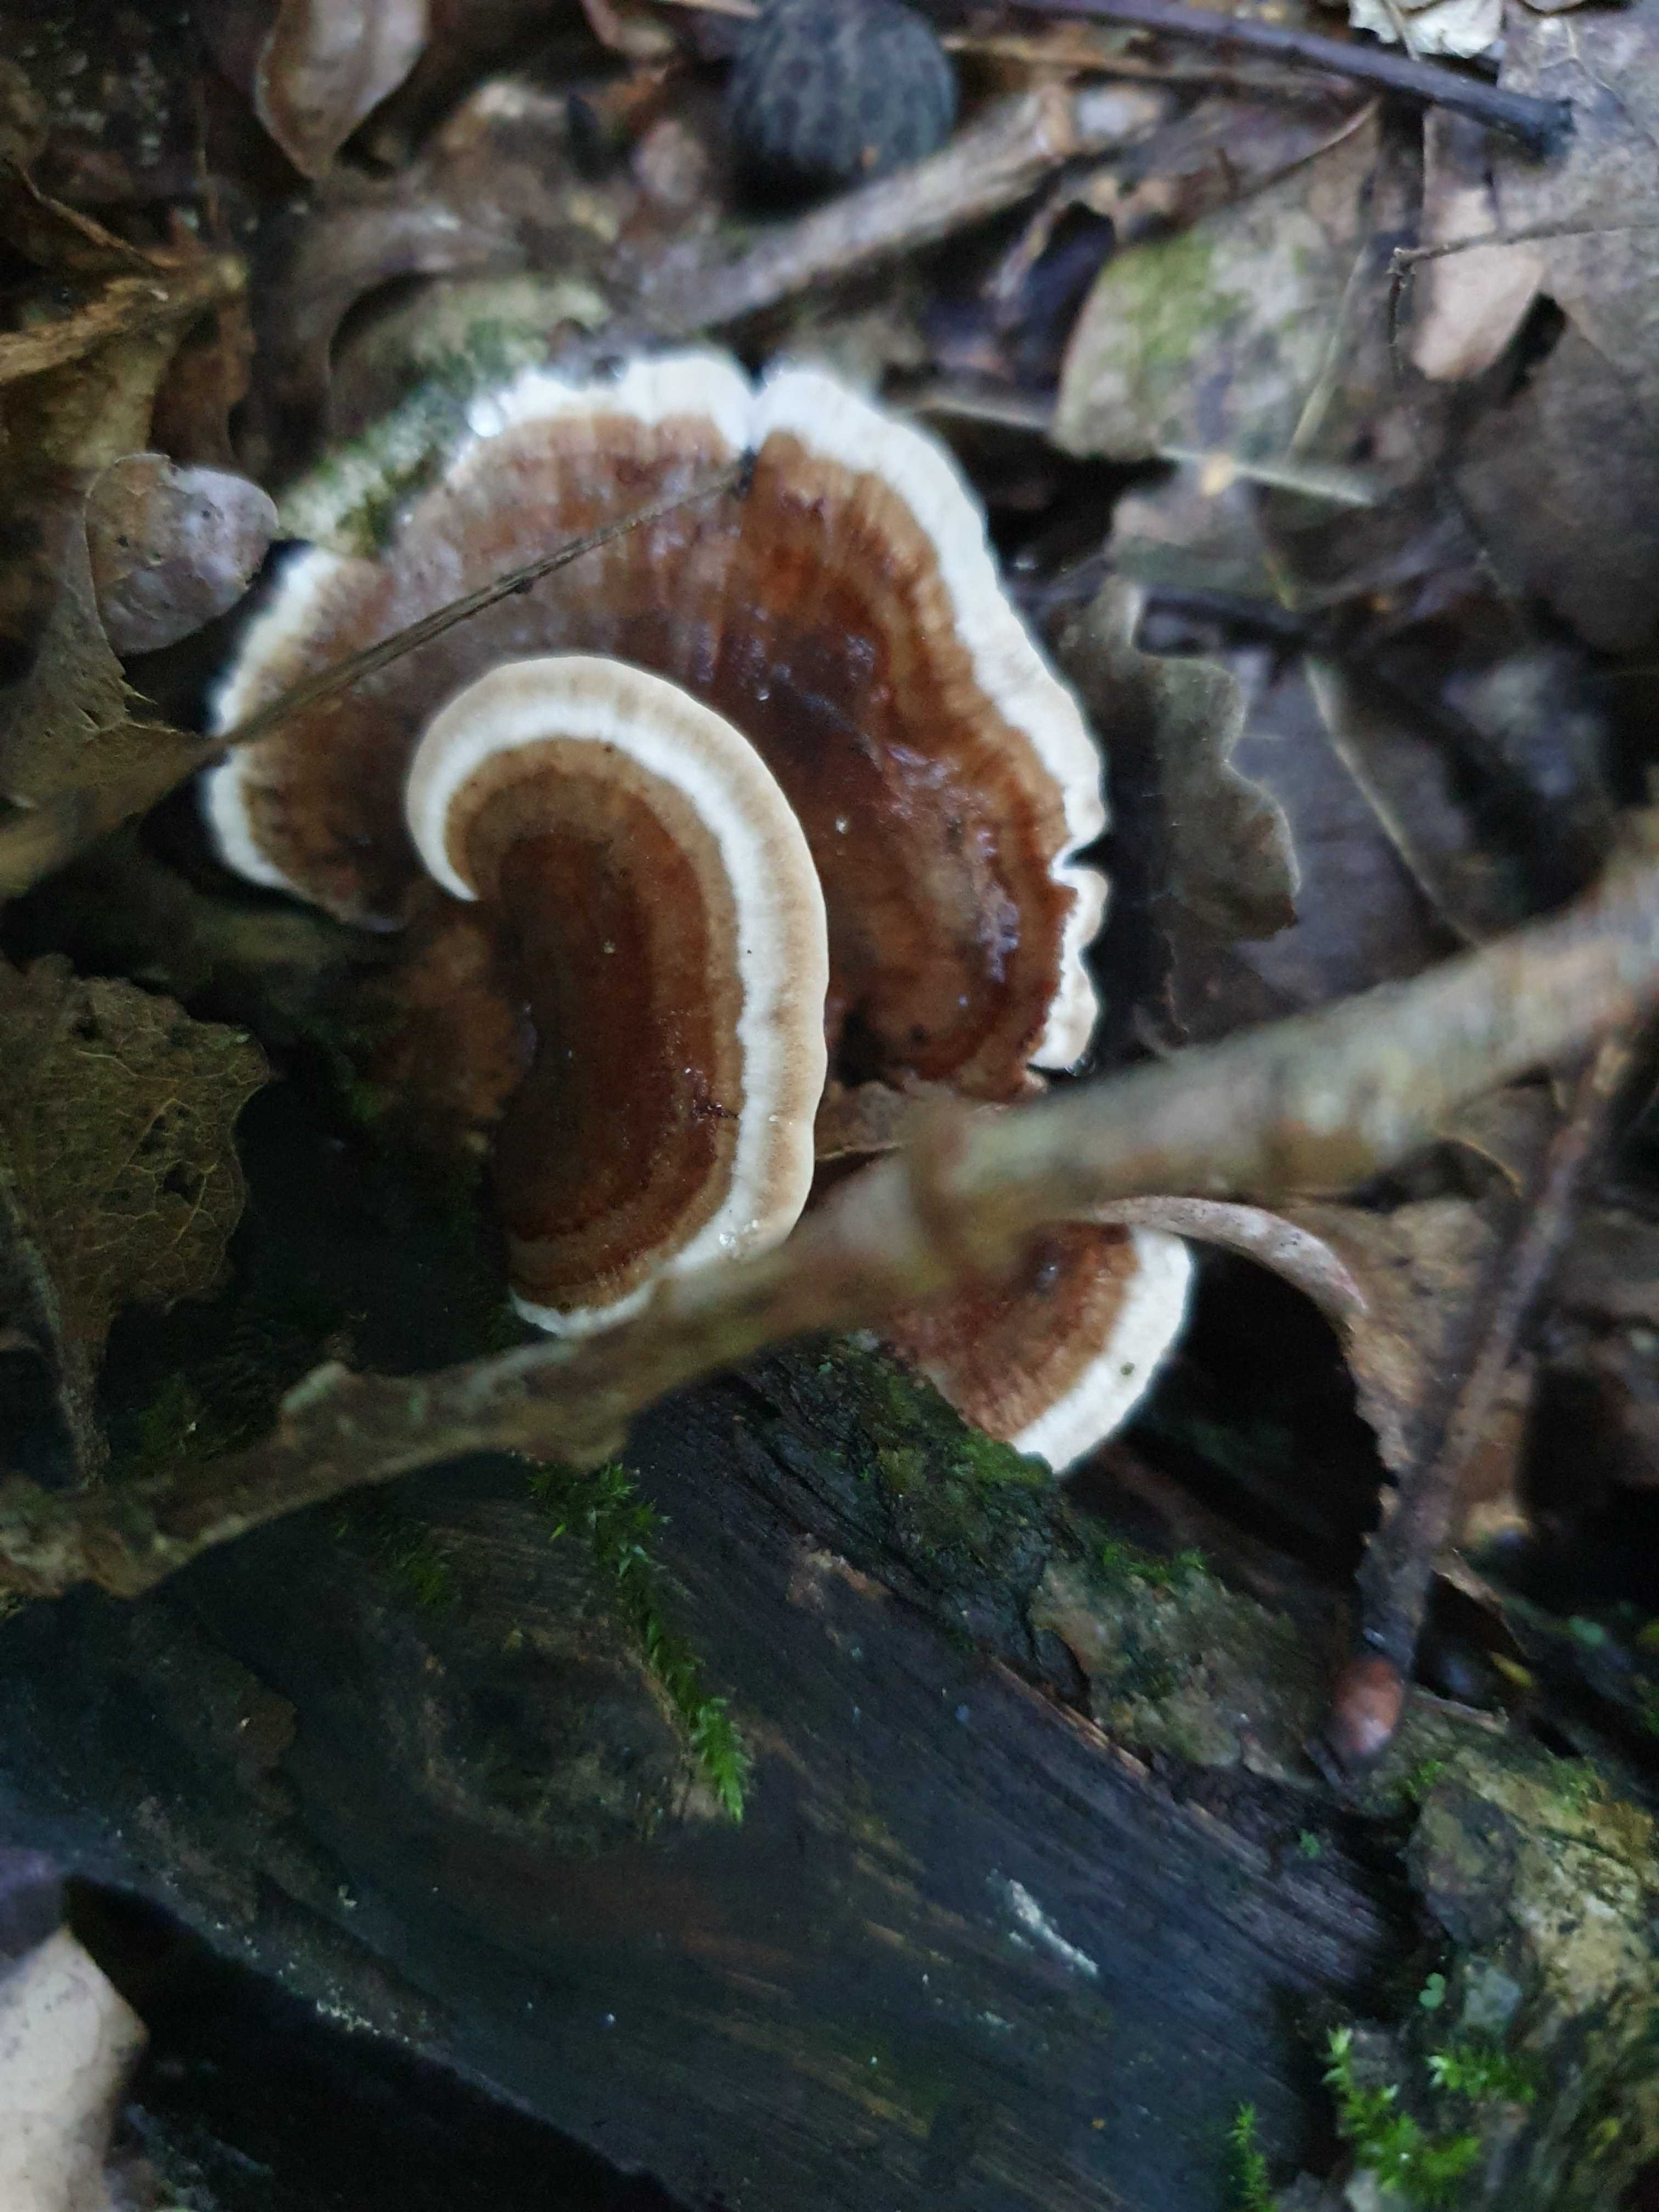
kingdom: Fungi
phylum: Basidiomycota
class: Agaricomycetes
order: Polyporales
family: Polyporaceae
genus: Trametes
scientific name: Trametes versicolor
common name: broget læderporesvamp
